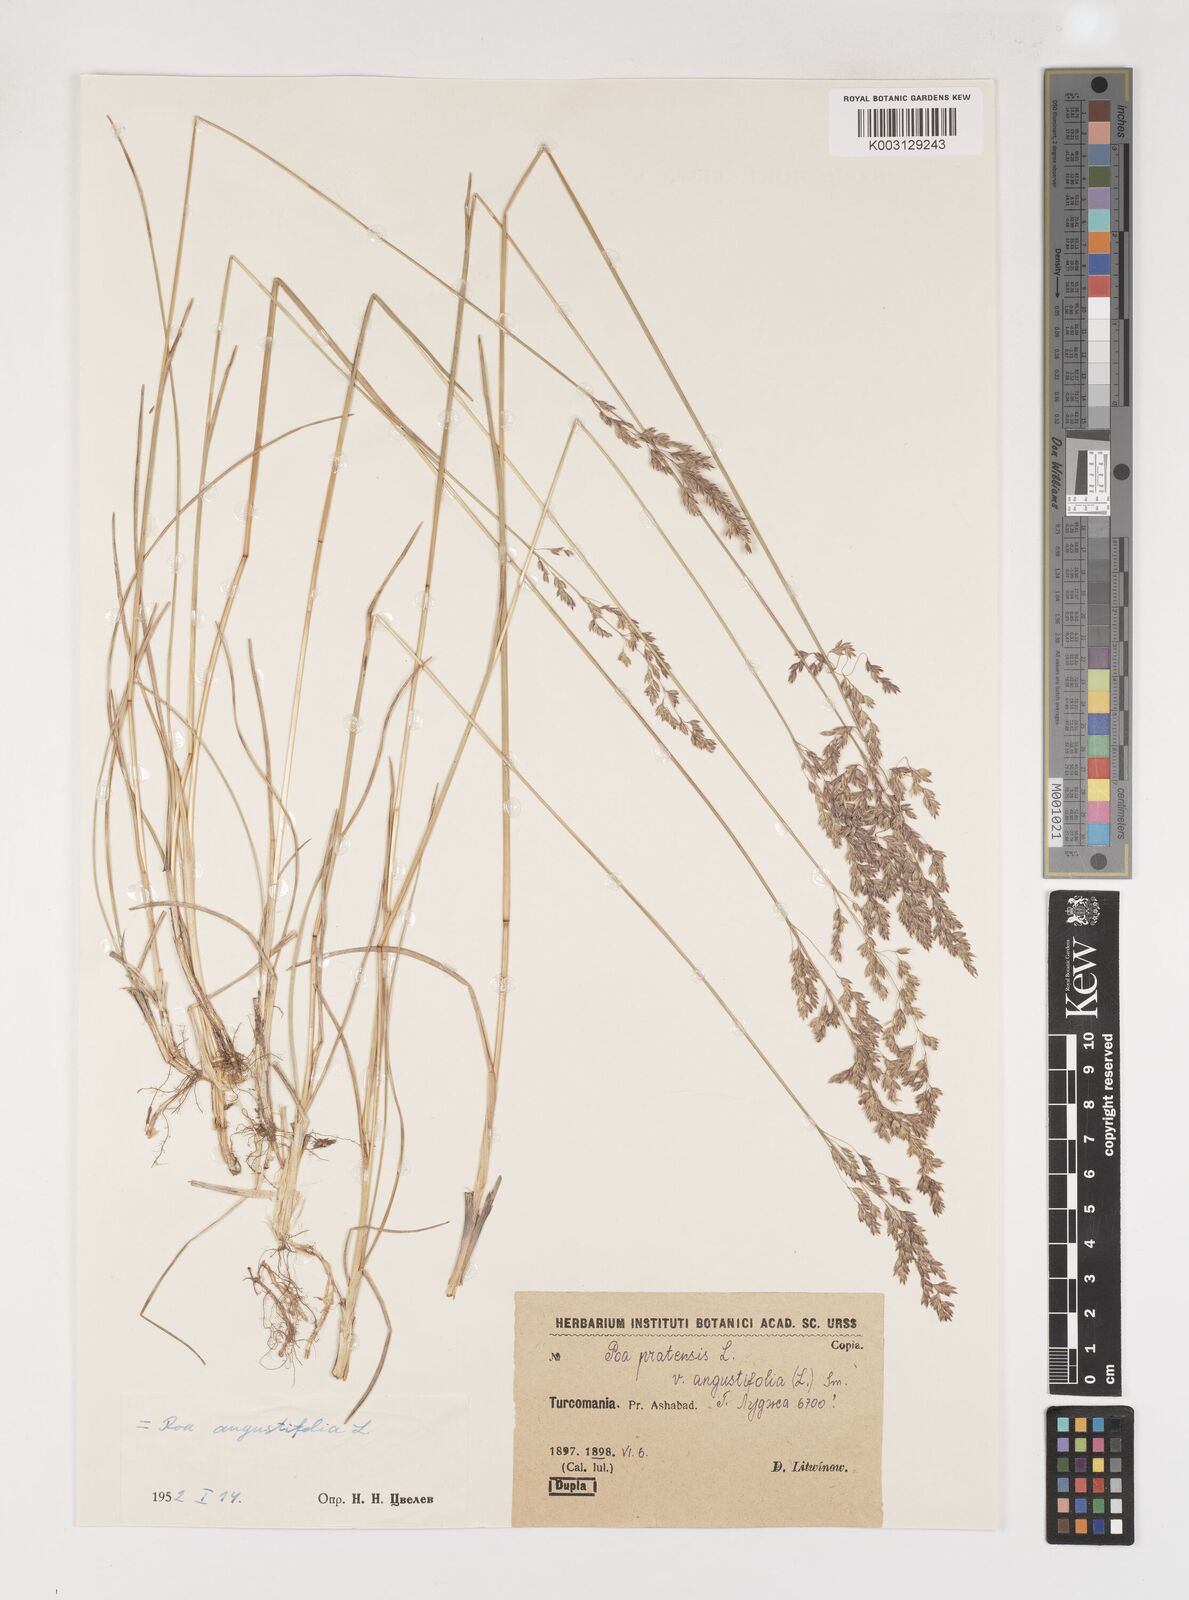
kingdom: Plantae
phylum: Tracheophyta
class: Liliopsida
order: Poales
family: Poaceae
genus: Poa
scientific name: Poa angustifolia
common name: Narrow-leaved meadow-grass
